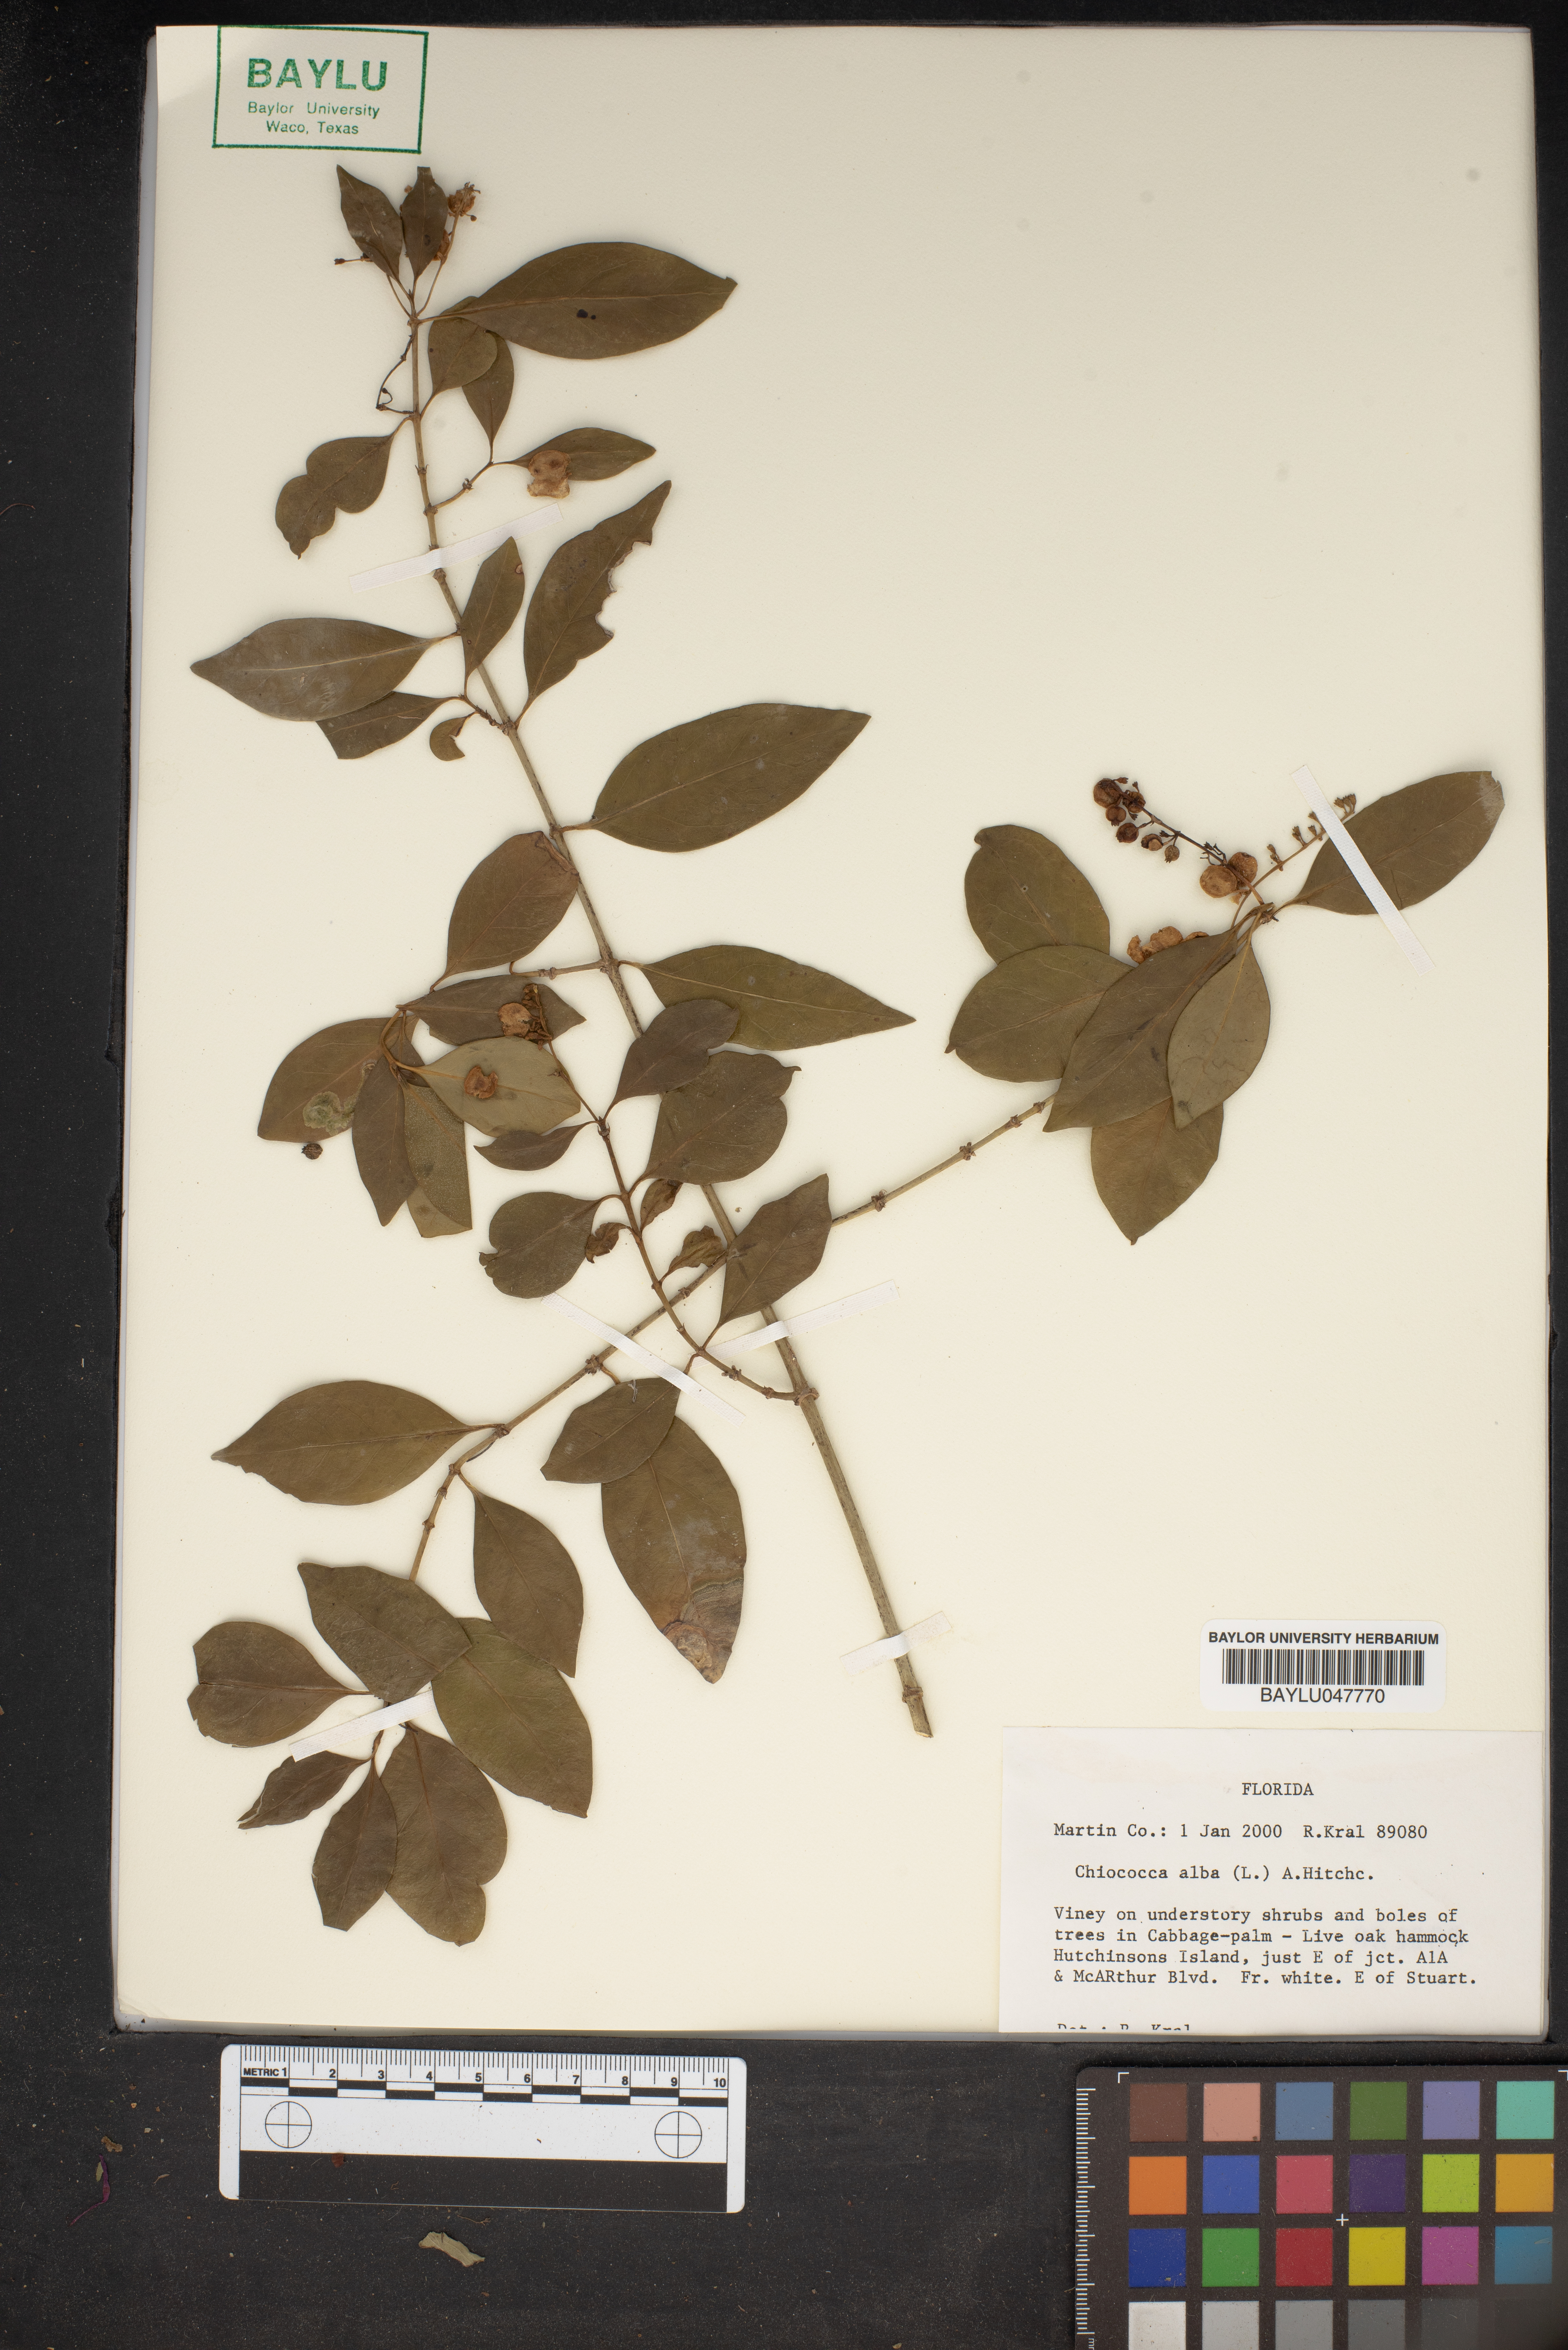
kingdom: Plantae
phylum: Tracheophyta
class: Magnoliopsida
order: Gentianales
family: Rubiaceae
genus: Chiococca
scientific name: Chiococca alba
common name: Snowberry
